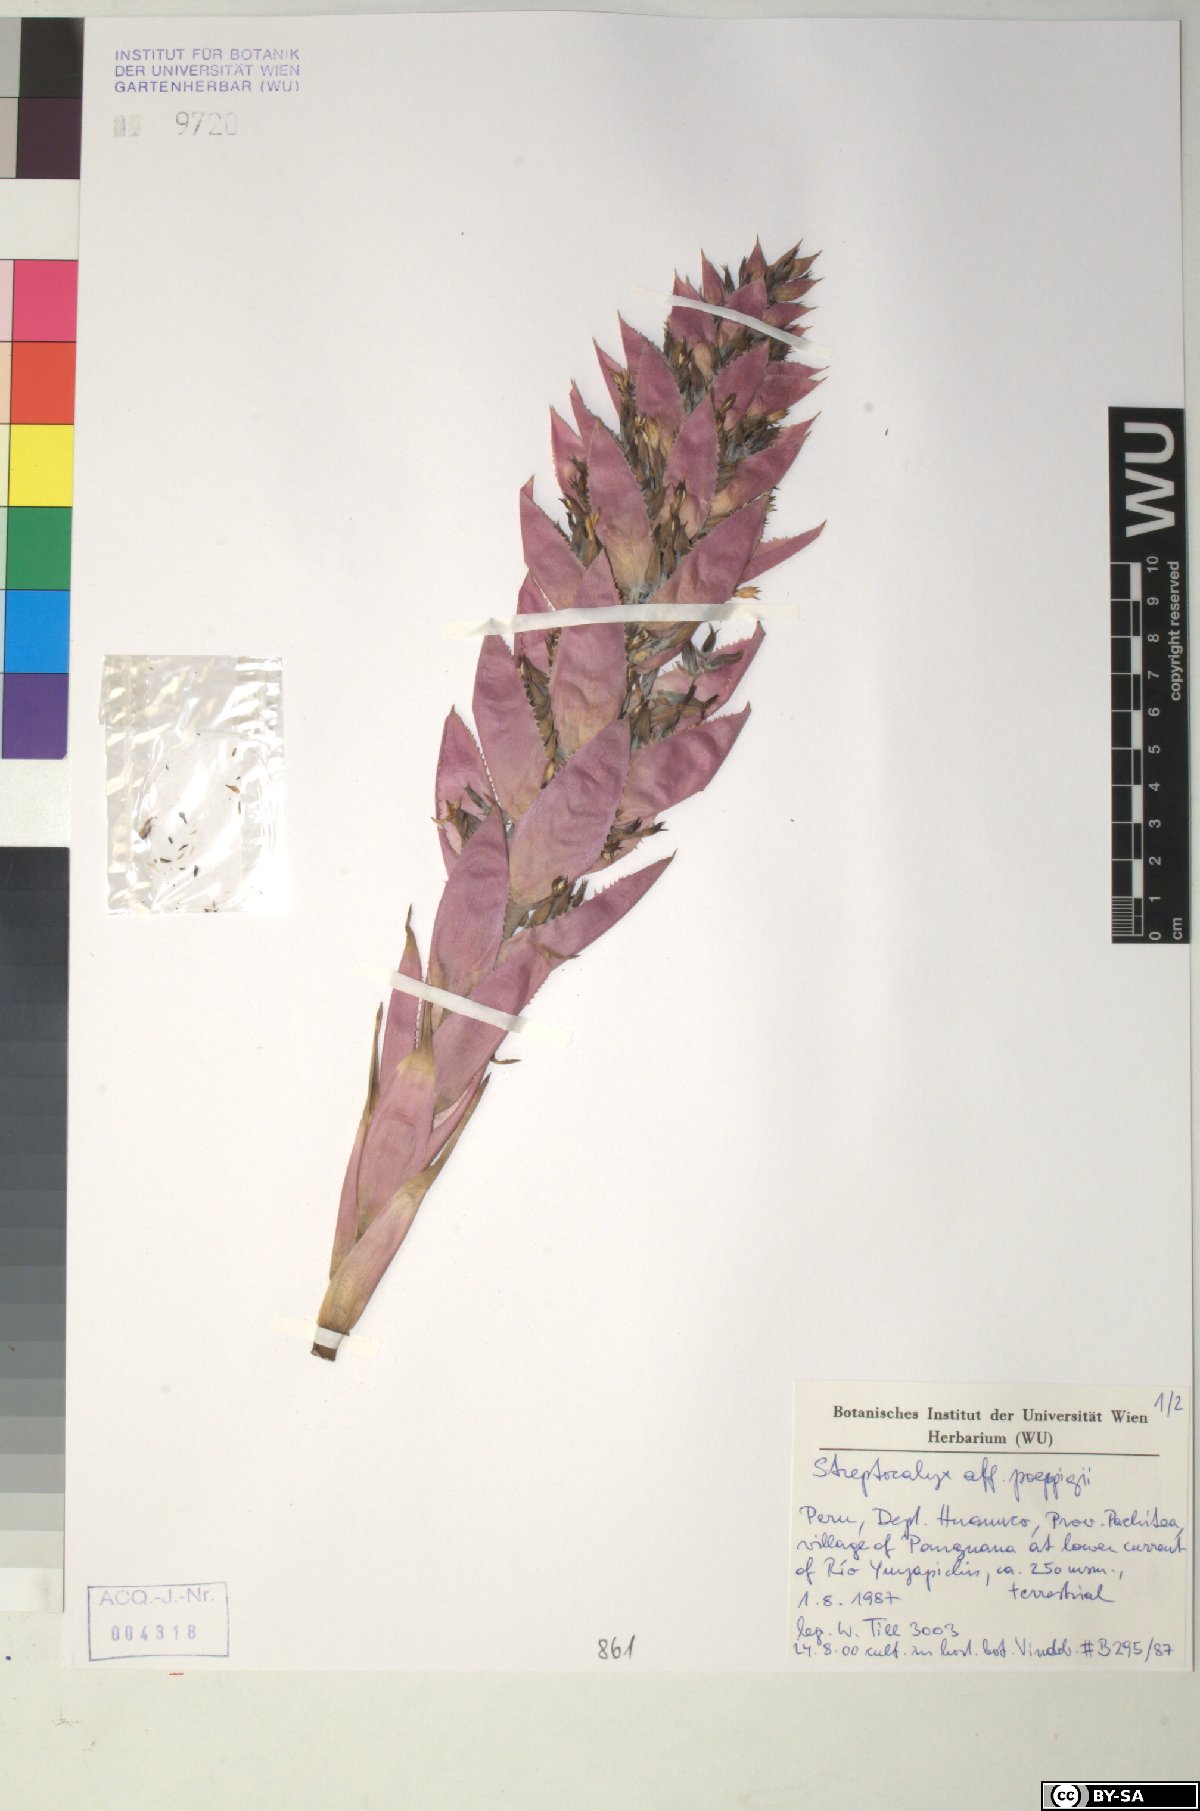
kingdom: Plantae
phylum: Tracheophyta
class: Liliopsida
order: Poales
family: Bromeliaceae
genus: Aechmea
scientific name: Aechmea vallerandii
